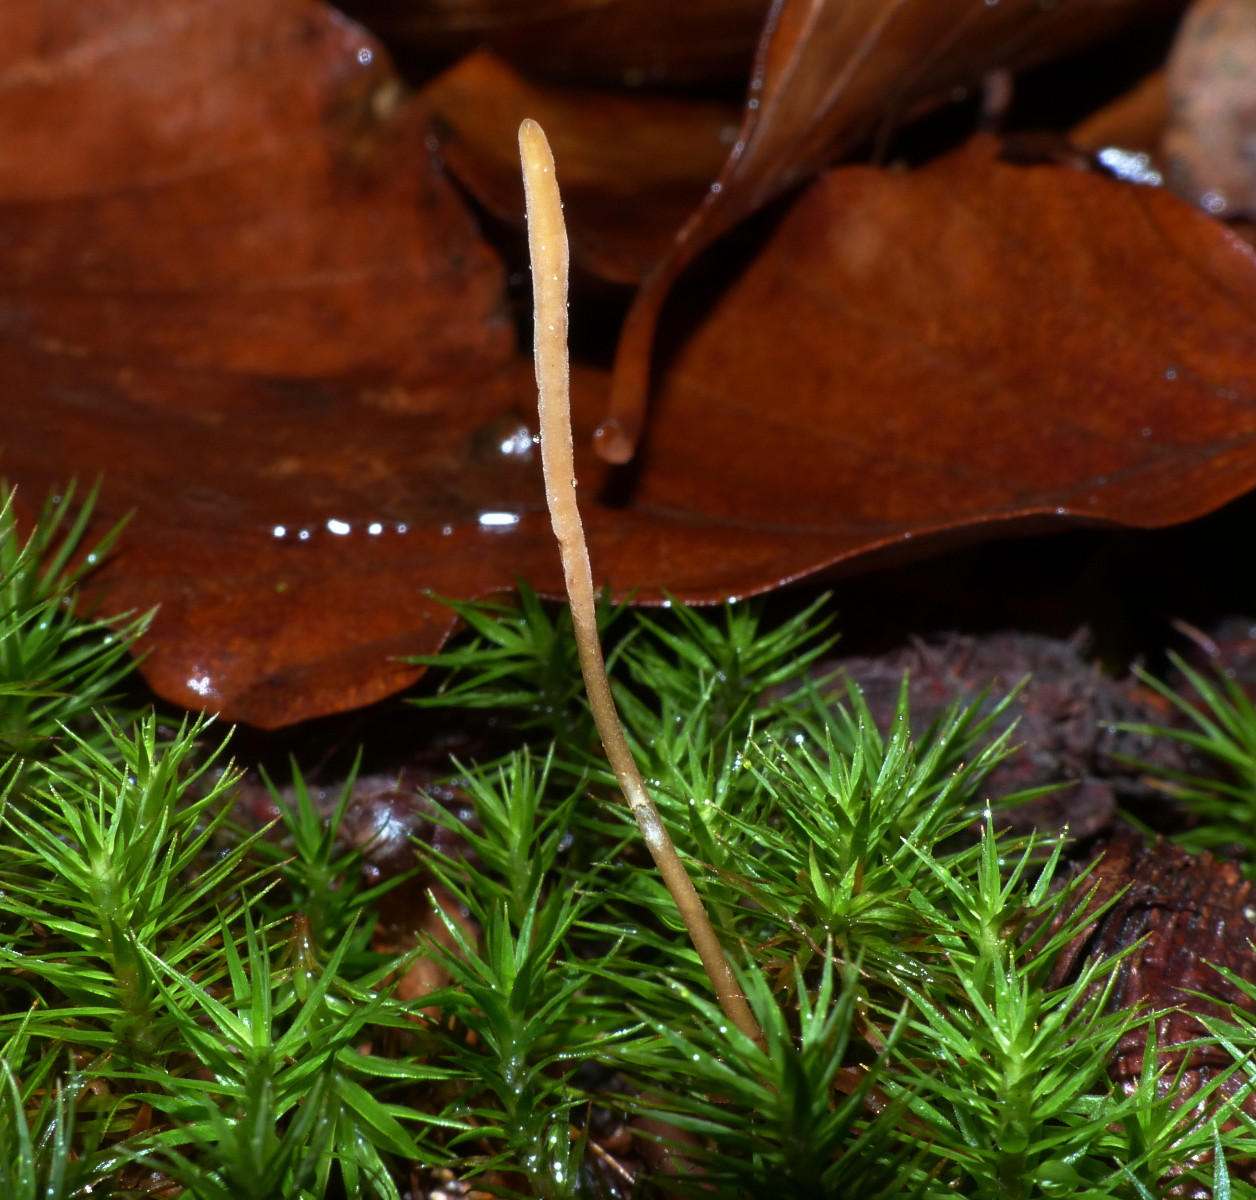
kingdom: Fungi
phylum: Basidiomycota
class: Agaricomycetes
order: Agaricales
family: Typhulaceae
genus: Typhula
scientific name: Typhula fistulosa
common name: pibet rørkølle
